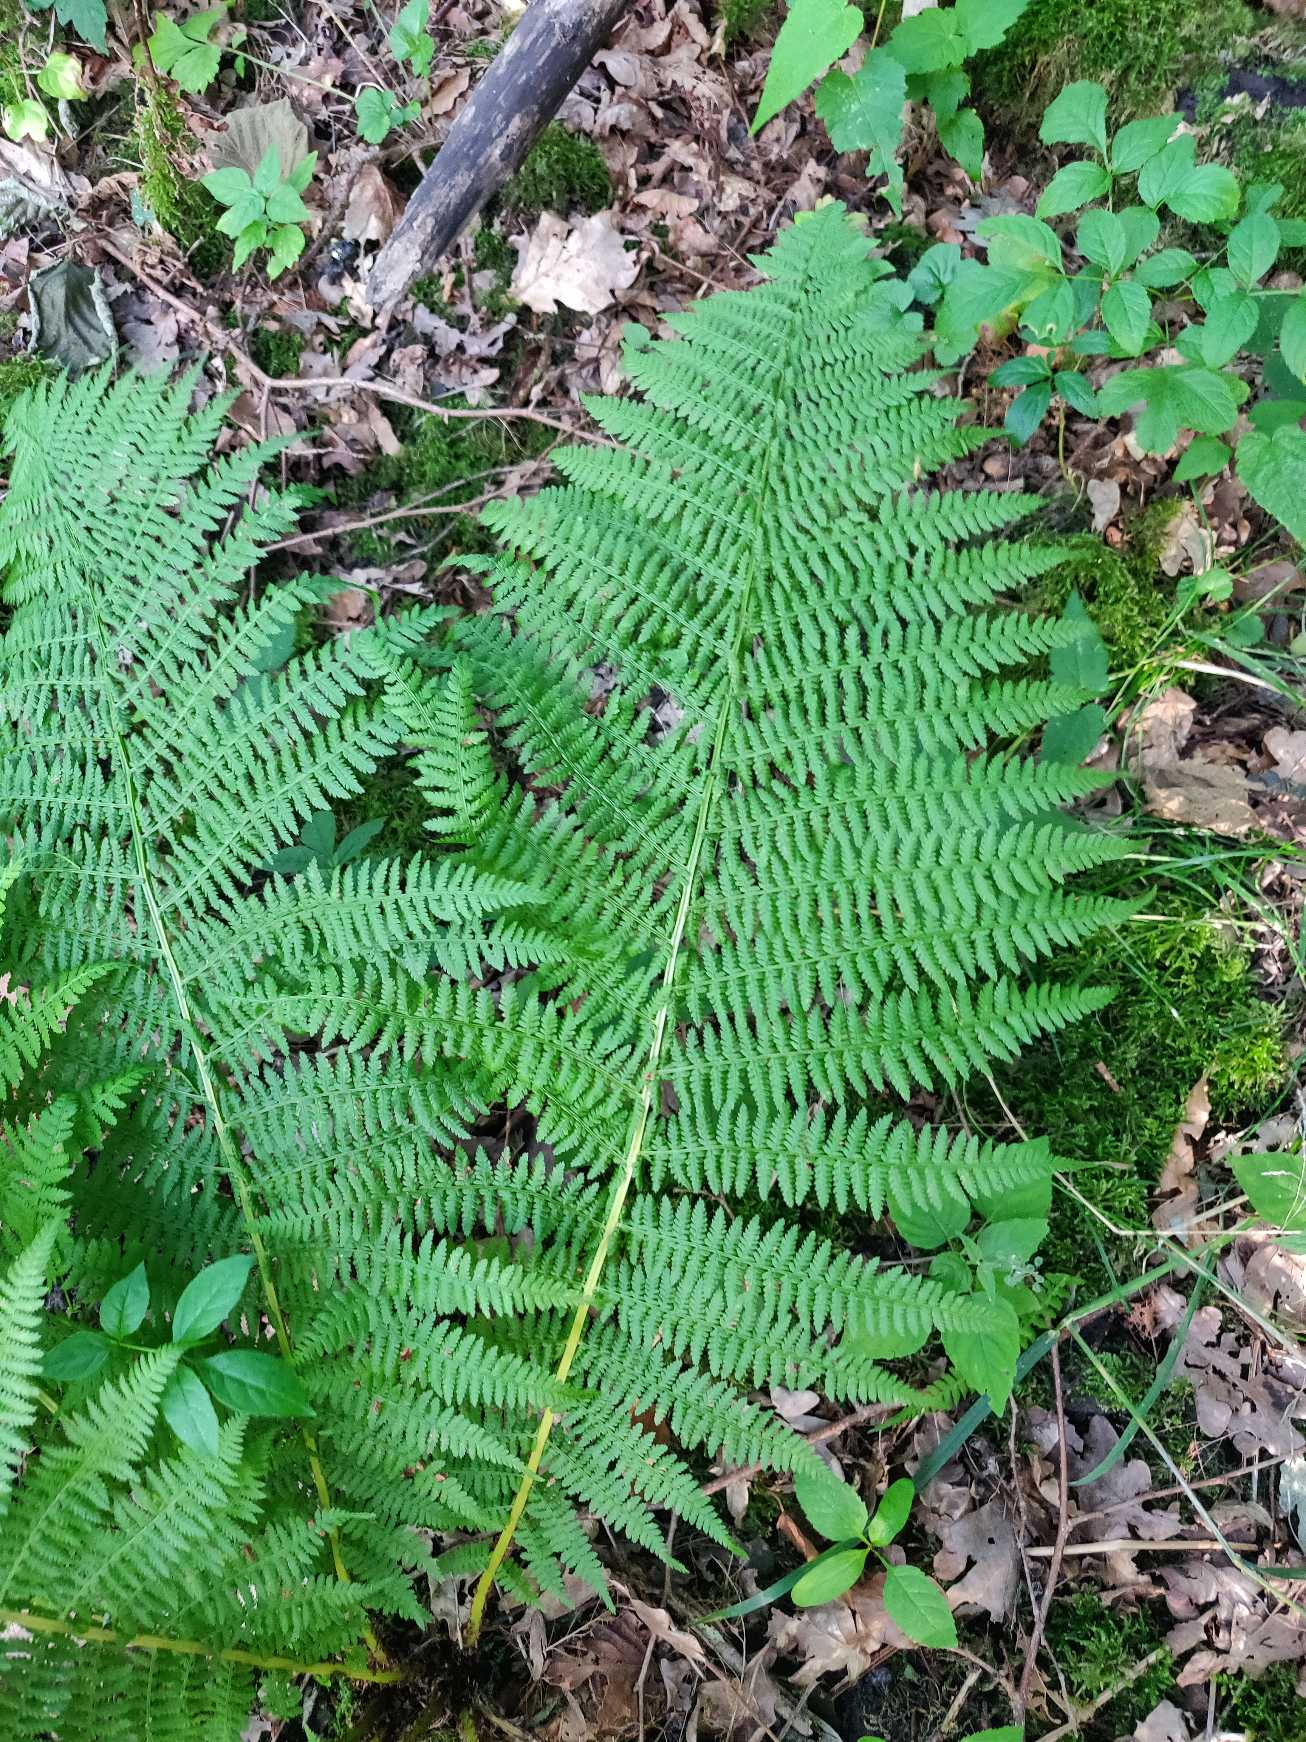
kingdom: Plantae
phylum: Tracheophyta
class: Polypodiopsida
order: Polypodiales
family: Athyriaceae
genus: Athyrium
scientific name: Athyrium filix-femina
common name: Fjerbregne
